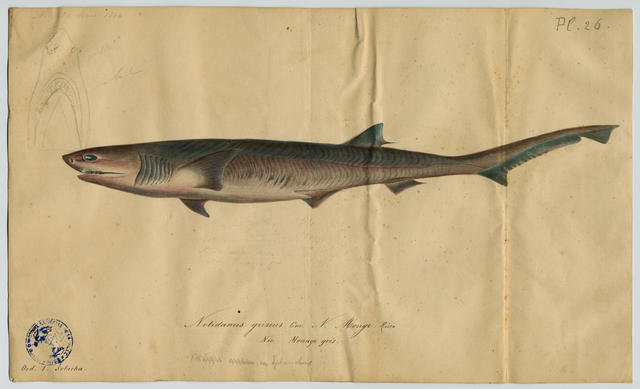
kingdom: Animalia
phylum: Chordata
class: Elasmobranchii
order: Hexanchiformes
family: Hexanchidae
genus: Hexanchus
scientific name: Hexanchus griseus
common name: Bluntnose sixgill shark
